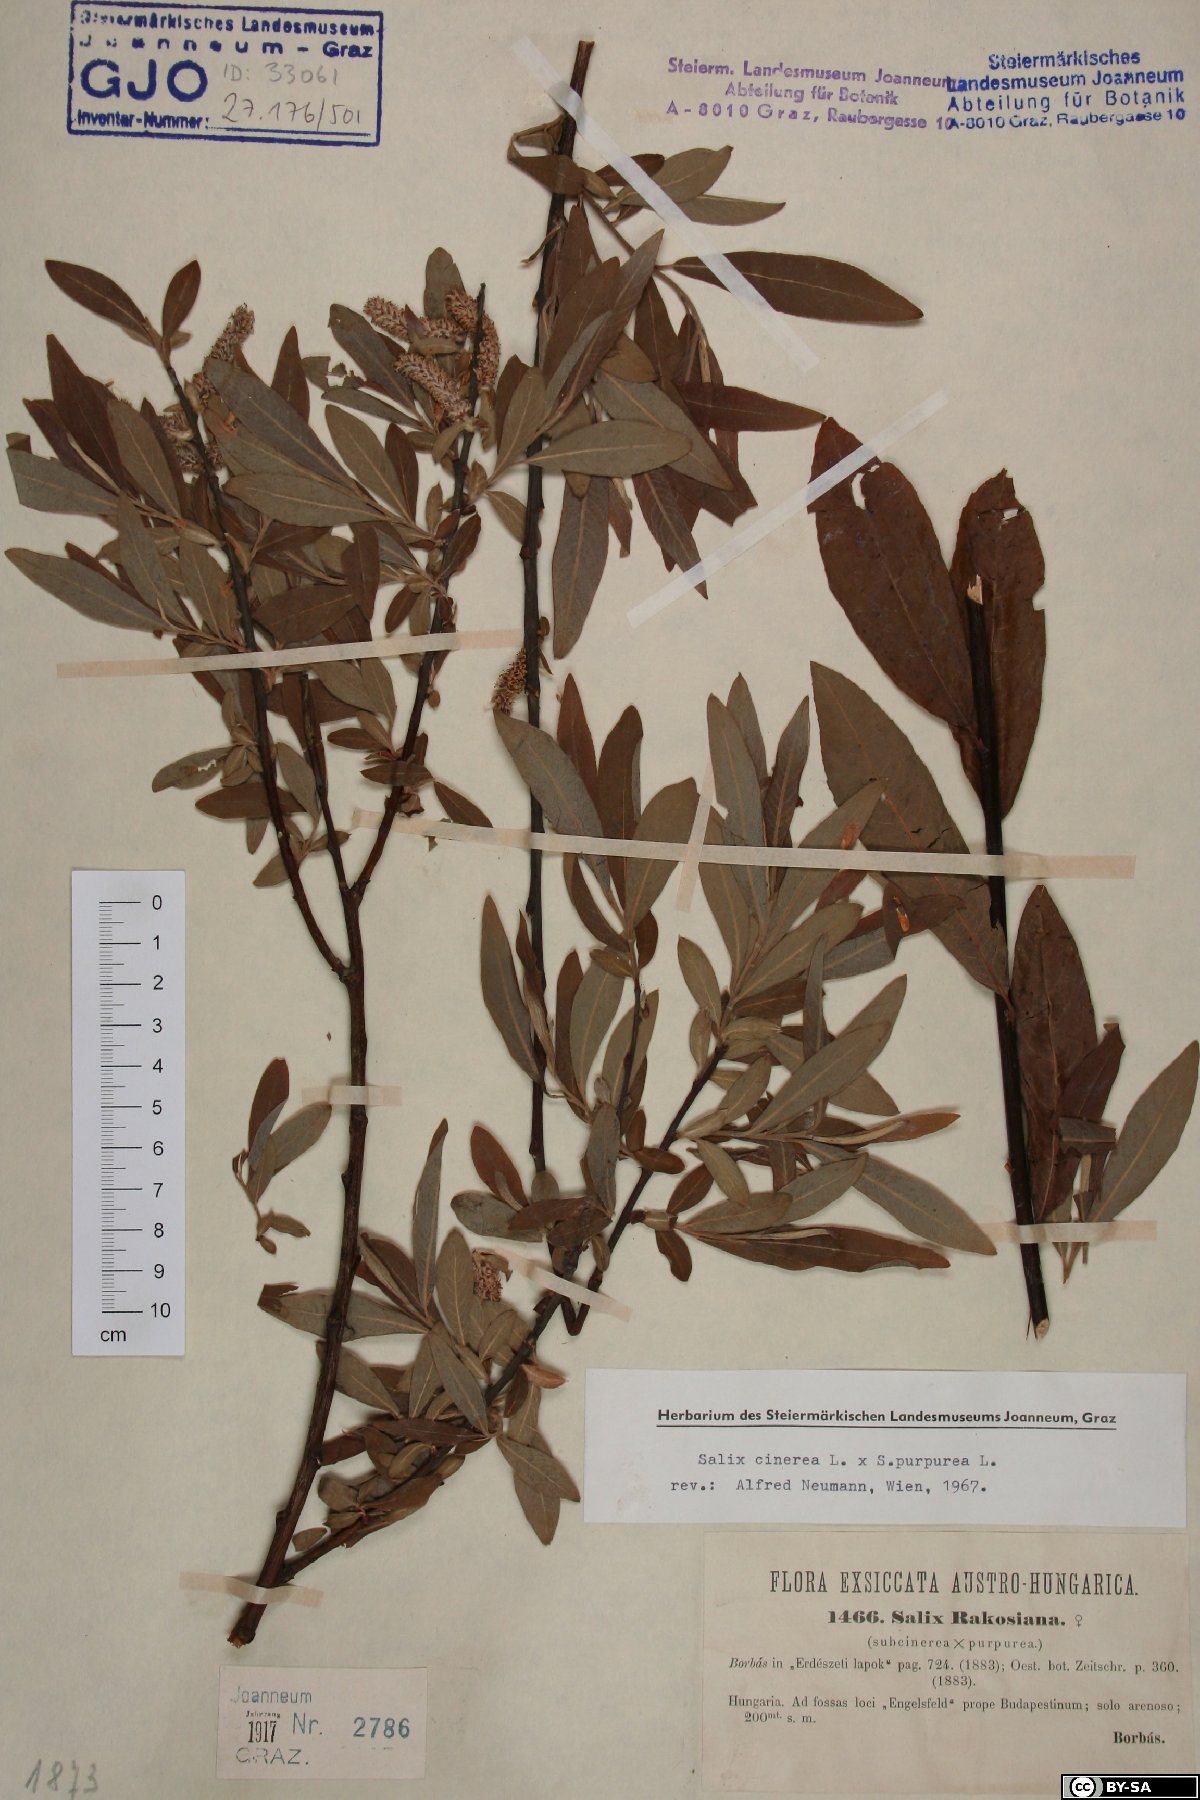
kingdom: Plantae
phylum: Tracheophyta
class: Magnoliopsida
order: Malpighiales
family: Salicaceae
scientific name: Salicaceae
